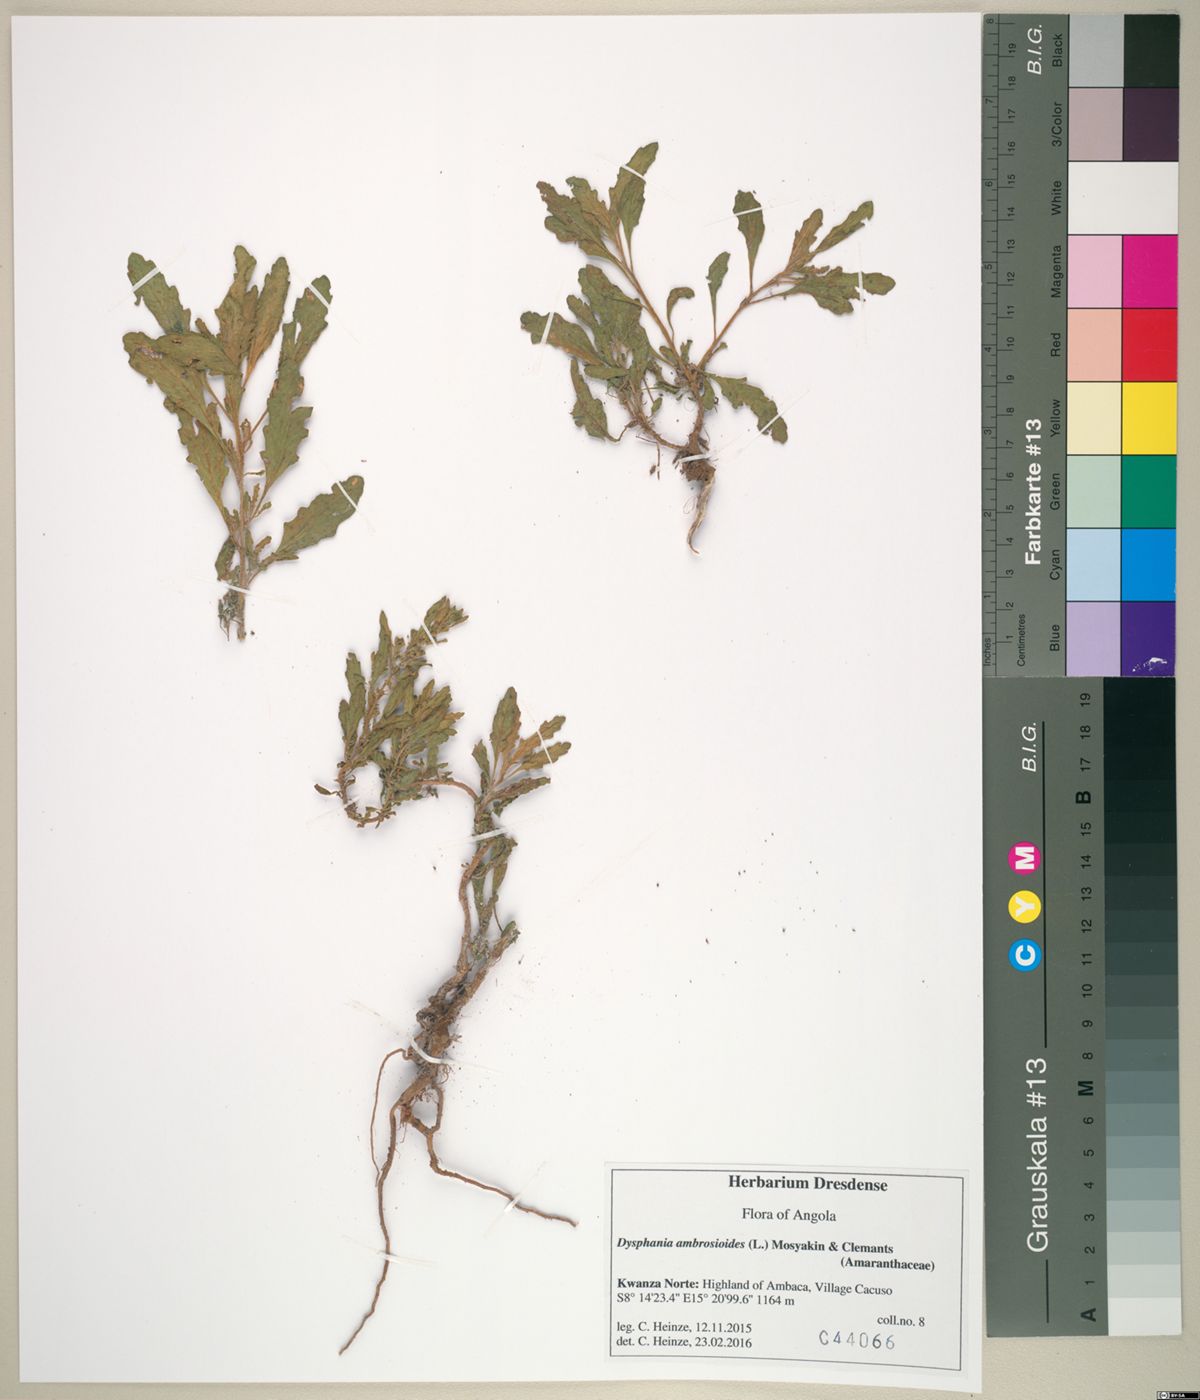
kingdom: Plantae
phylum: Tracheophyta
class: Magnoliopsida
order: Caryophyllales
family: Amaranthaceae
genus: Dysphania
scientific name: Dysphania ambrosioides
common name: Wormseed
